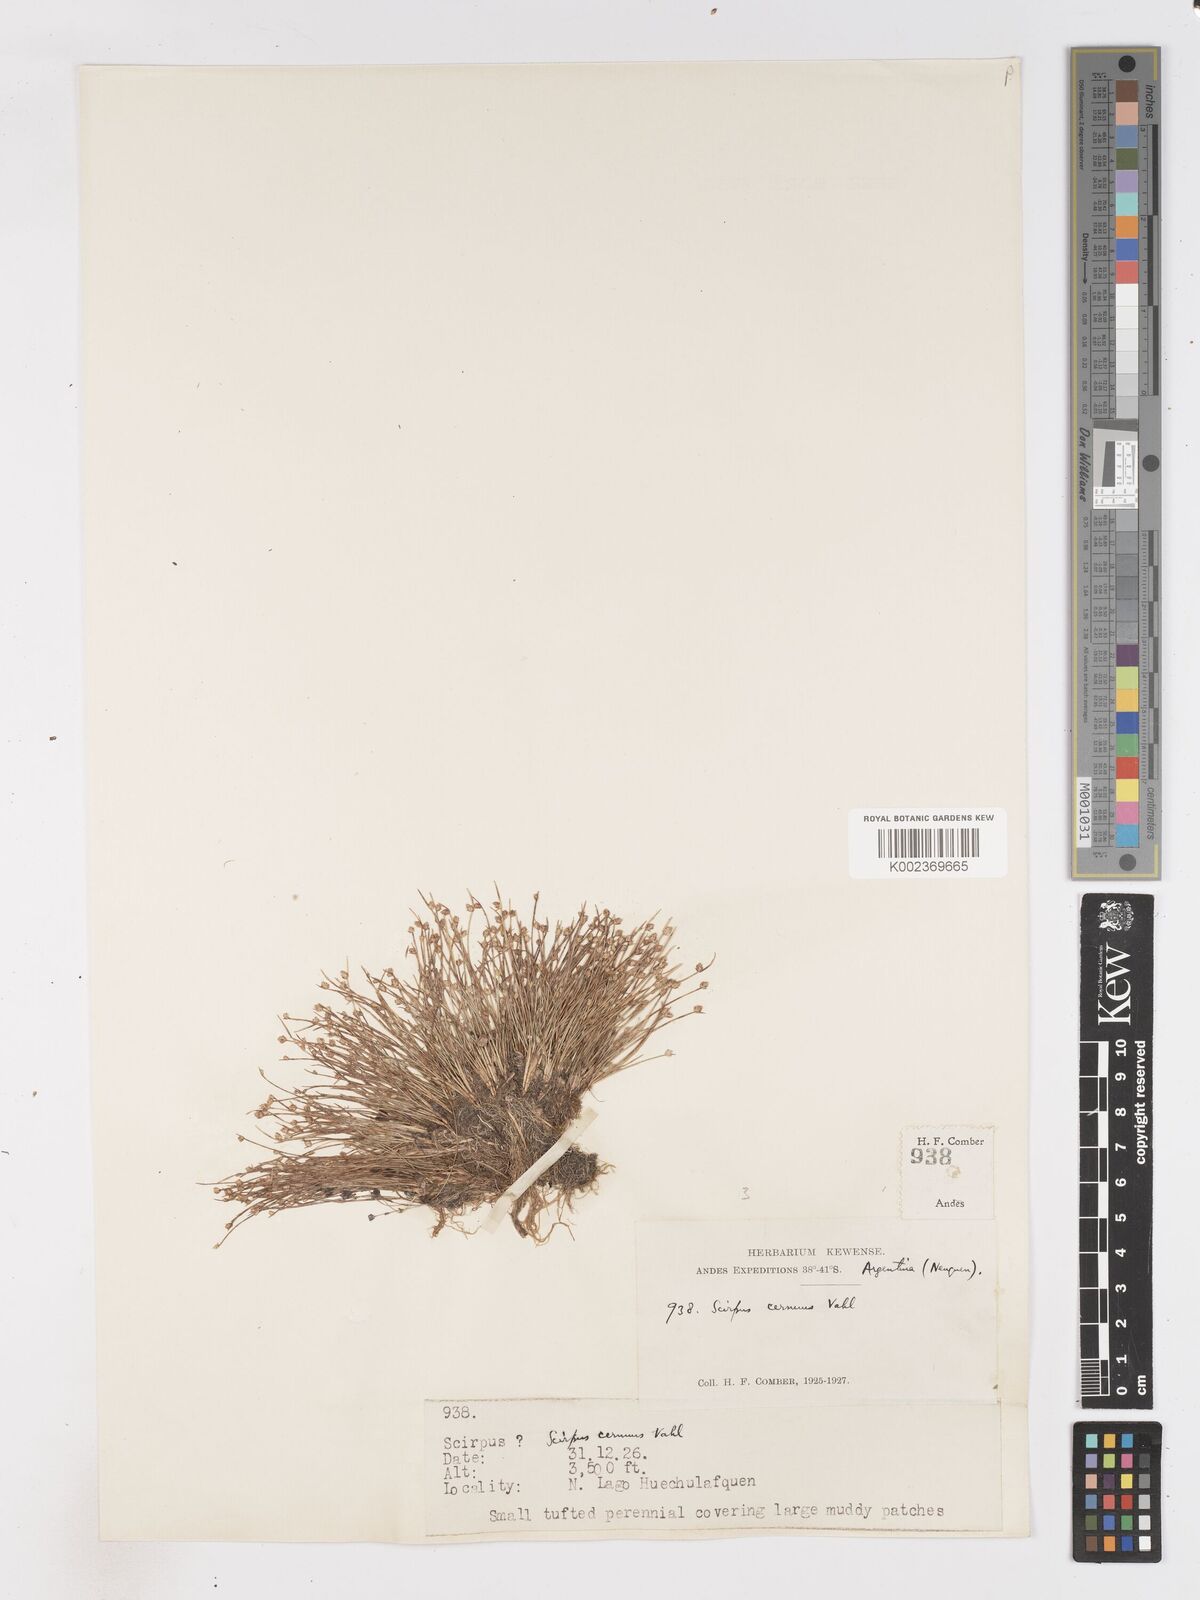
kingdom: Plantae
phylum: Tracheophyta
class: Liliopsida
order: Poales
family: Cyperaceae
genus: Isolepis
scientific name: Isolepis cernua
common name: Slender club-rush
